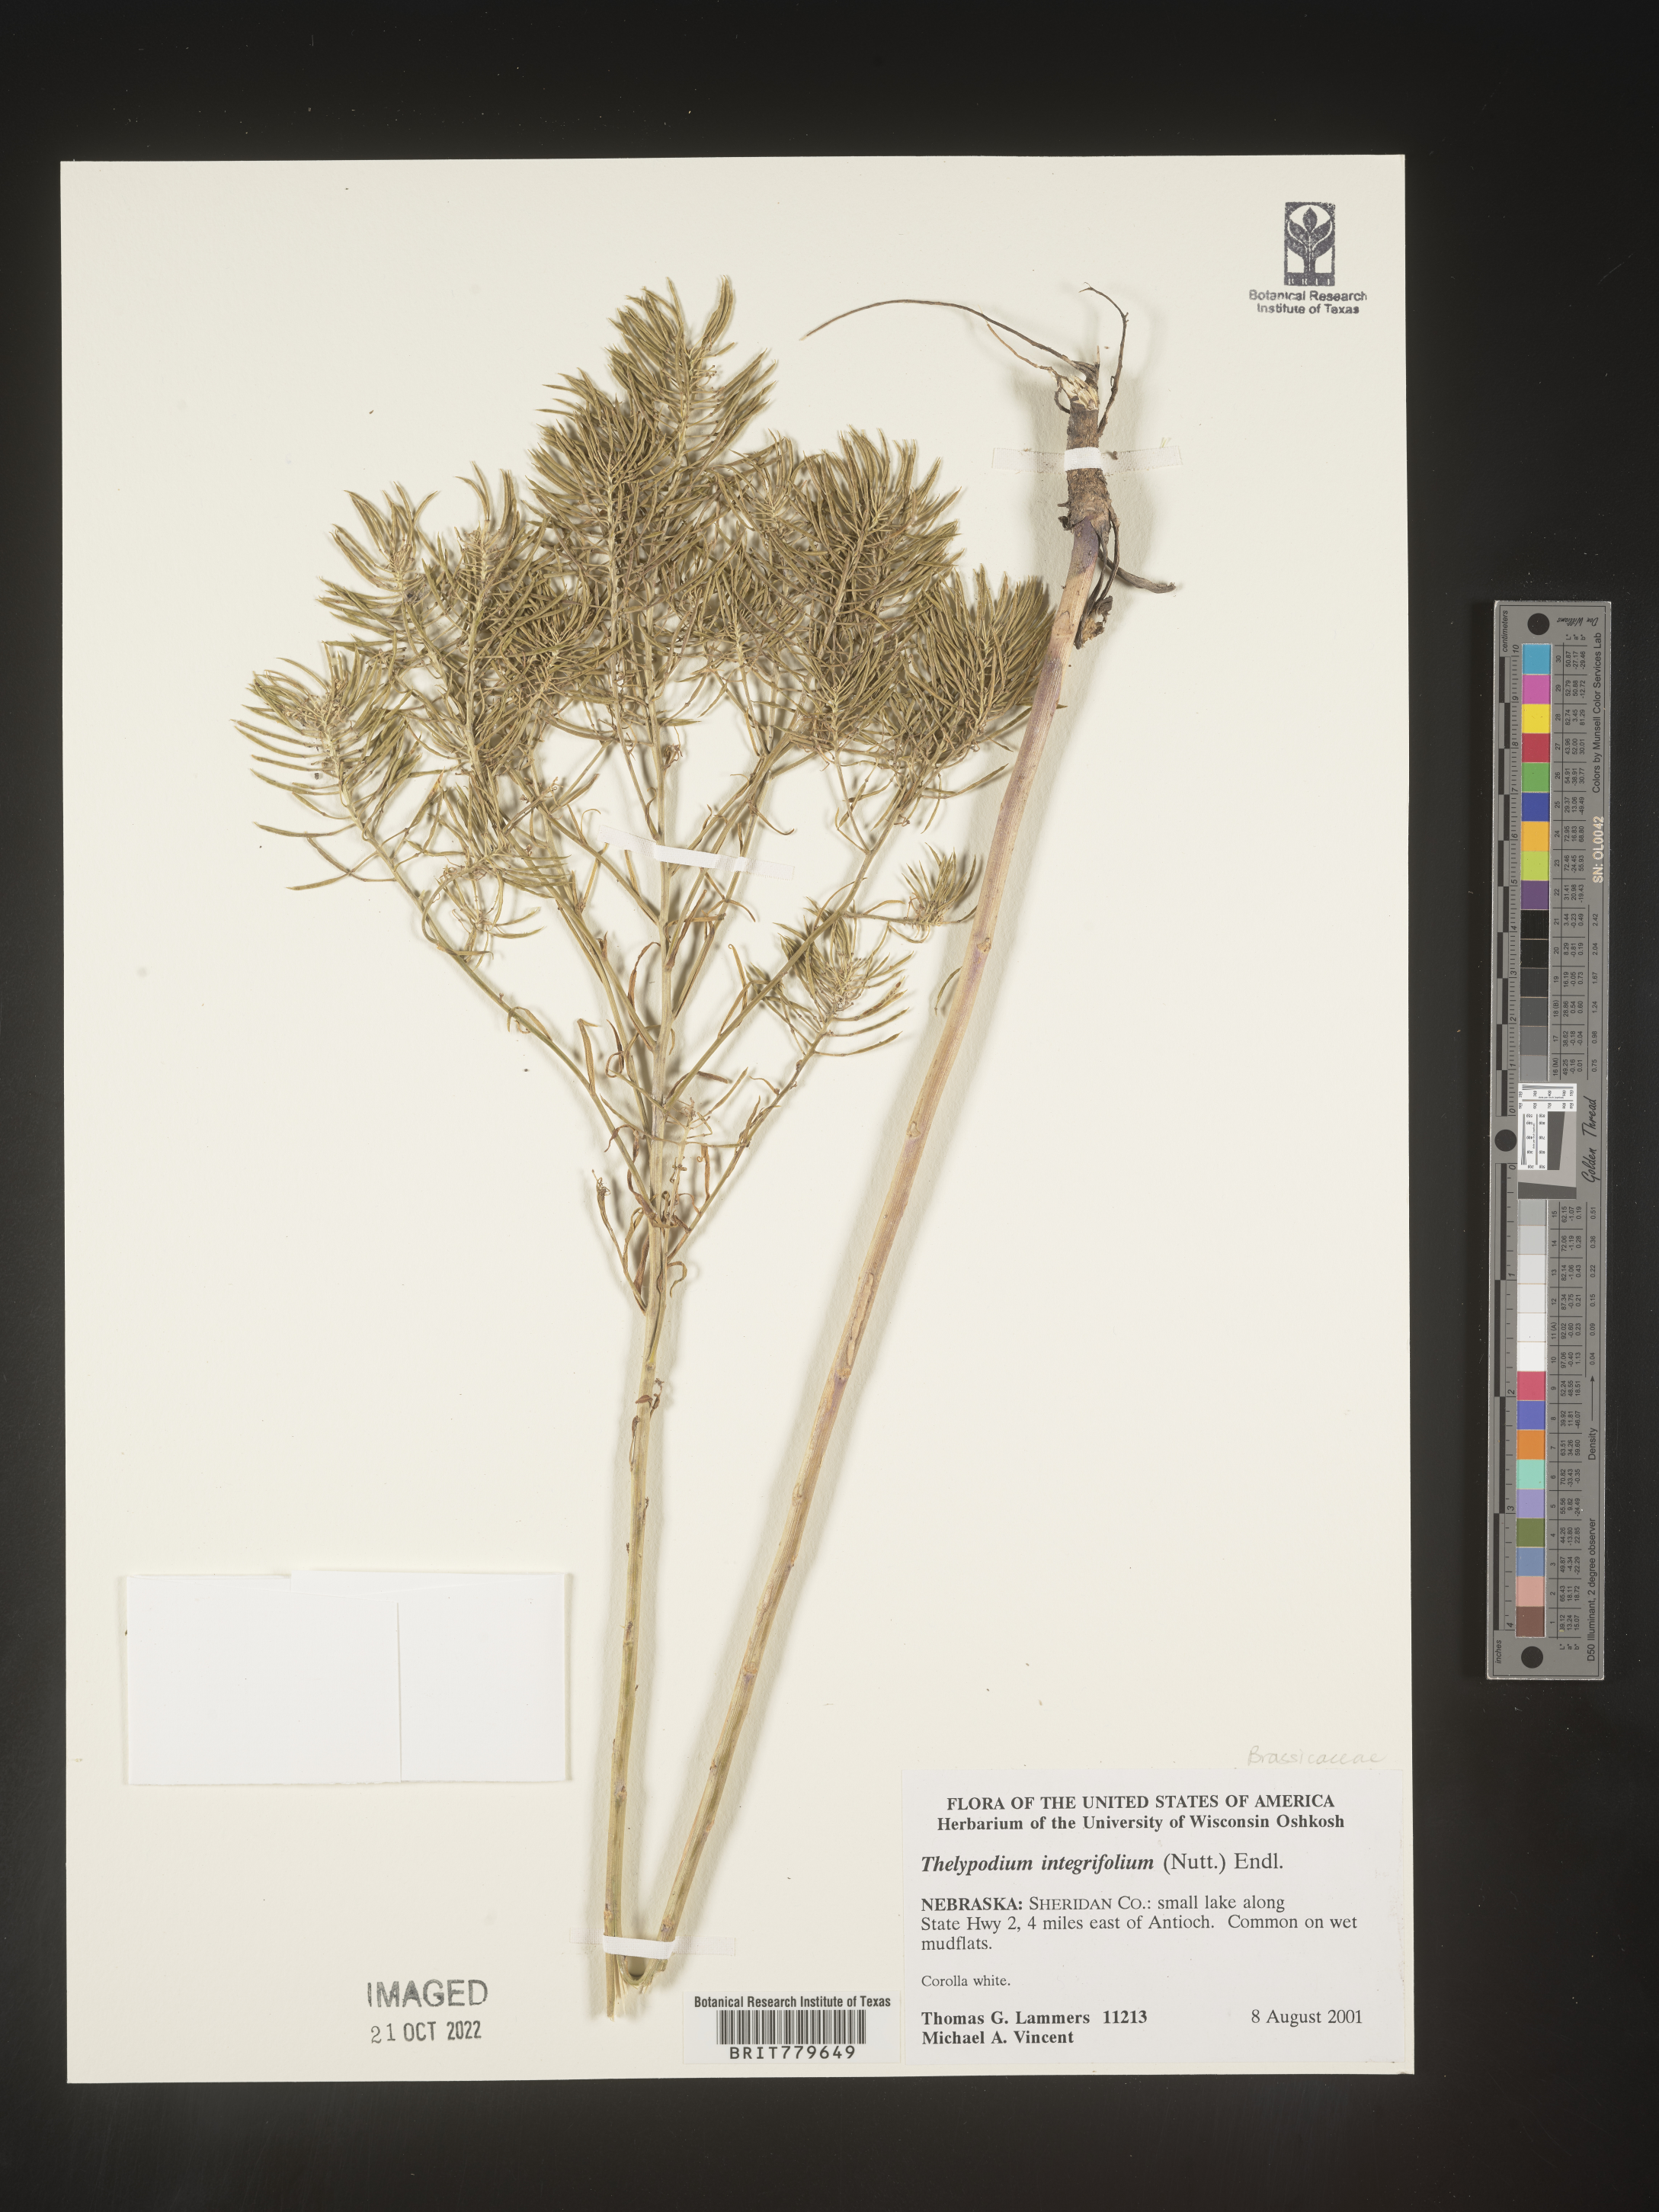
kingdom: Plantae
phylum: Tracheophyta
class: Magnoliopsida
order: Brassicales
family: Brassicaceae
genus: Thelypodium
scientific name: Thelypodium
